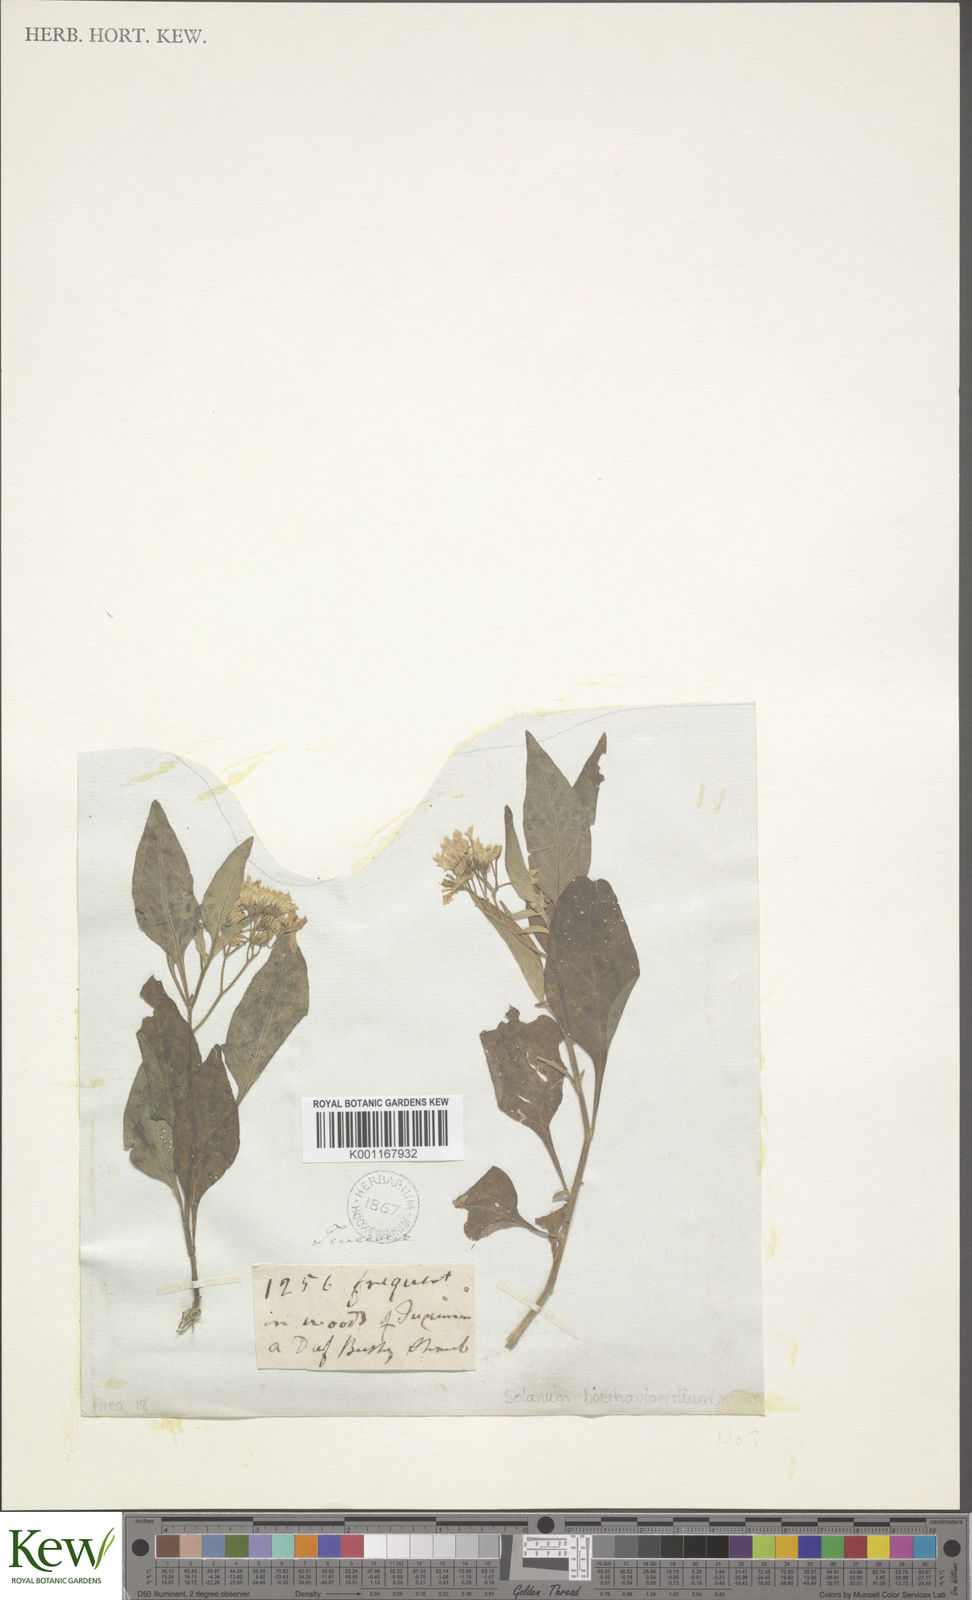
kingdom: Plantae
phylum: Tracheophyta
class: Magnoliopsida
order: Solanales
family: Solanaceae
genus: Solanum
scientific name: Solanum
